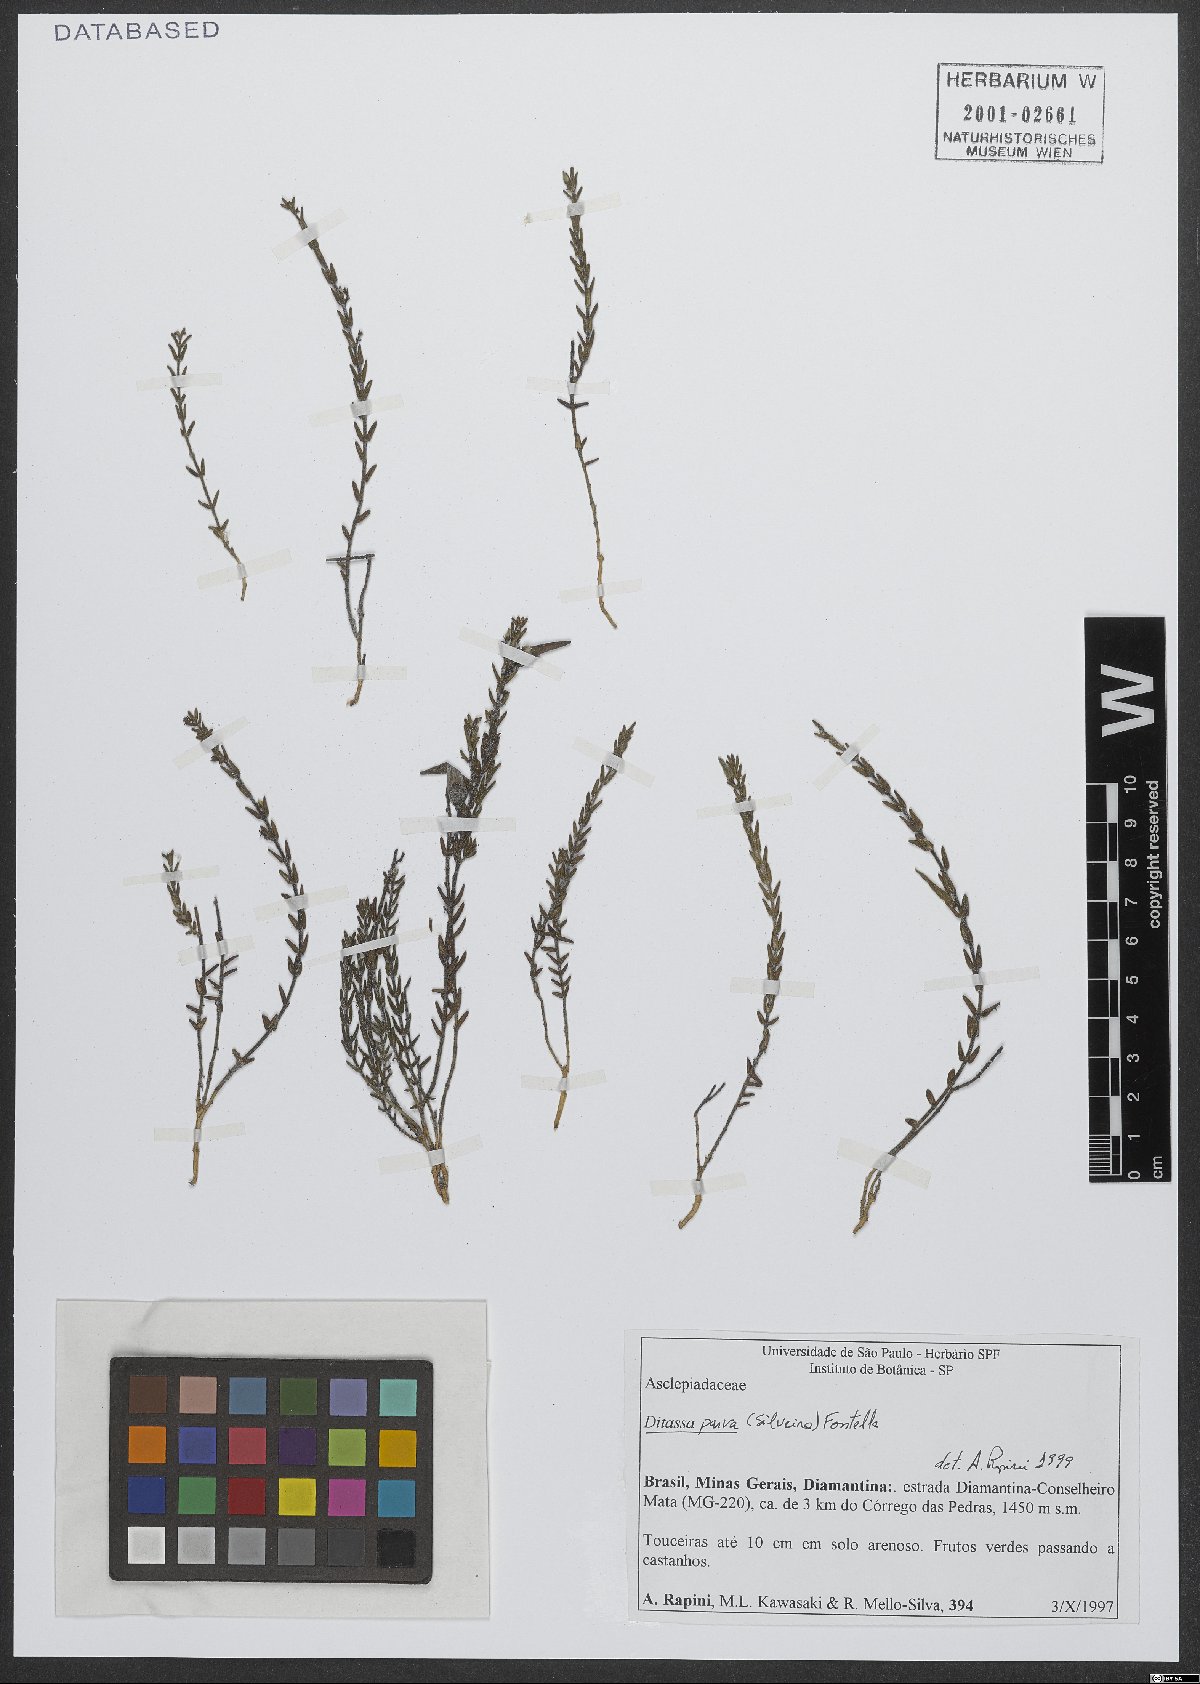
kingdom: Plantae
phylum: Tracheophyta
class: Magnoliopsida
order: Gentianales
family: Apocynaceae
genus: Minaria
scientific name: Minaria parva
